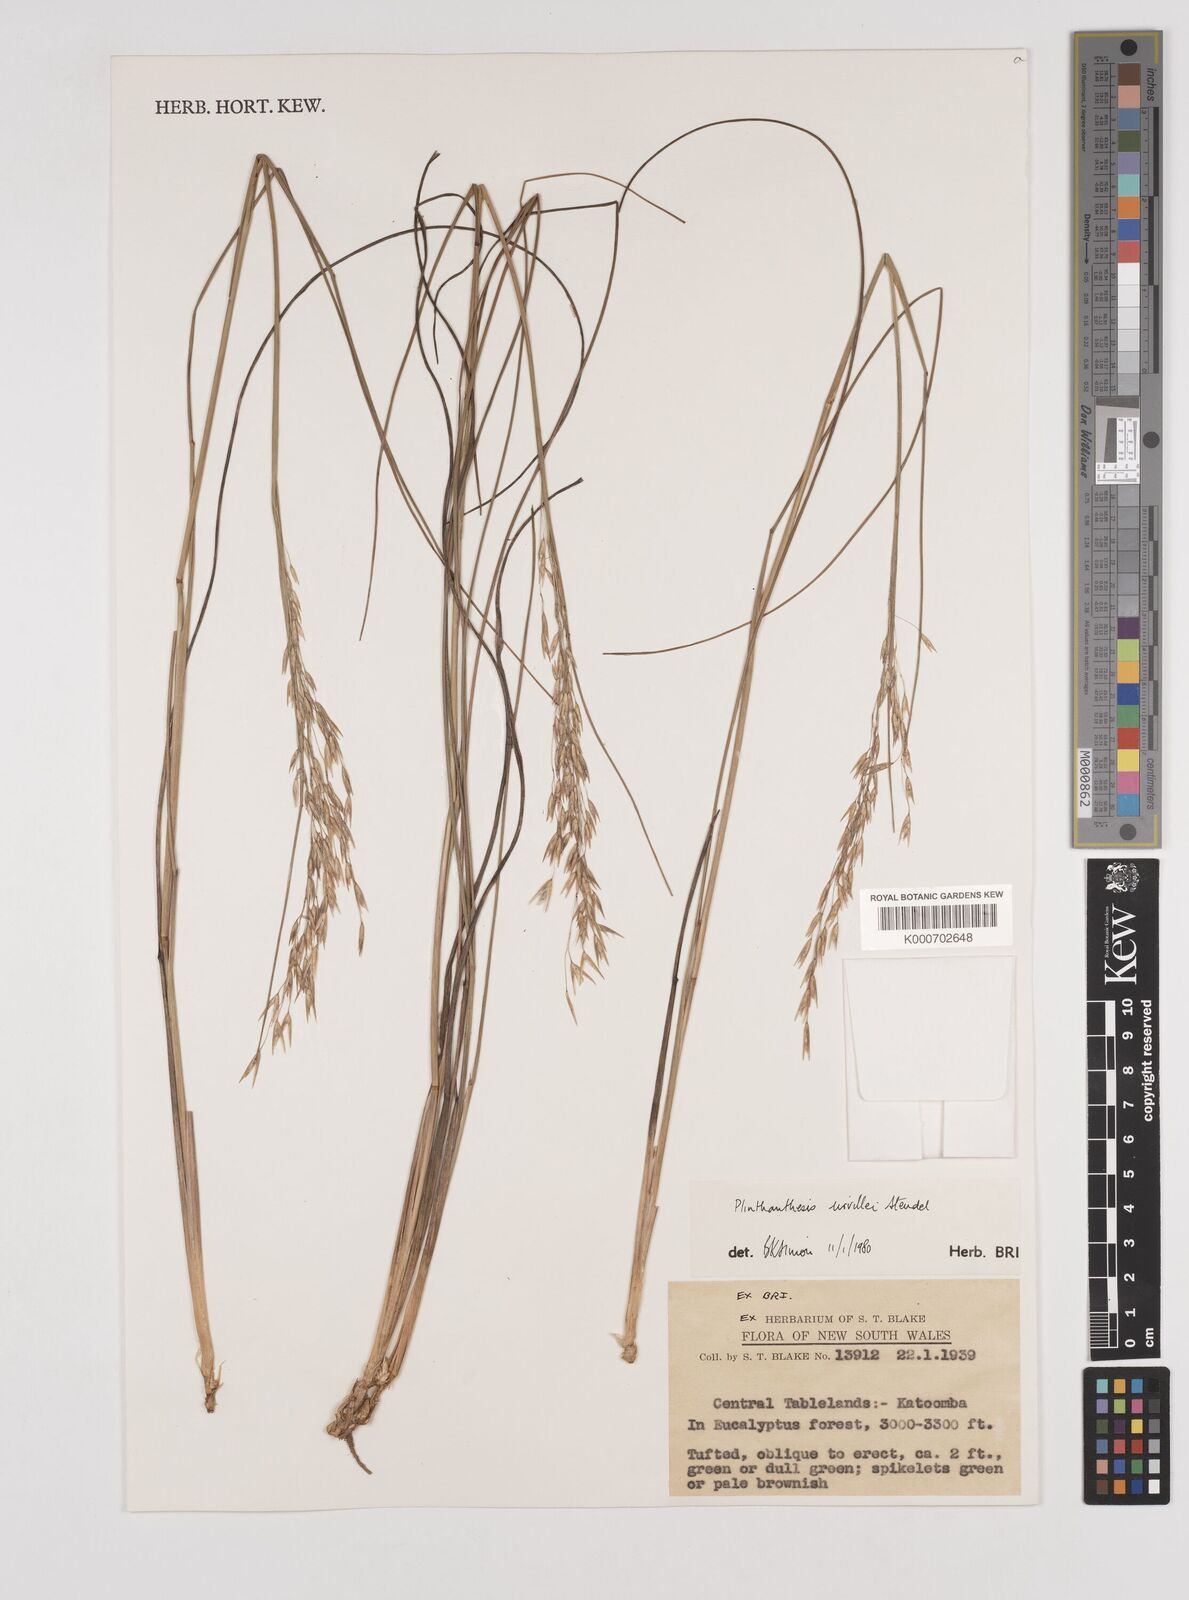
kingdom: Plantae
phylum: Tracheophyta
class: Liliopsida
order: Poales
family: Poaceae
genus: Plinthanthesis
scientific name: Plinthanthesis urvillei
